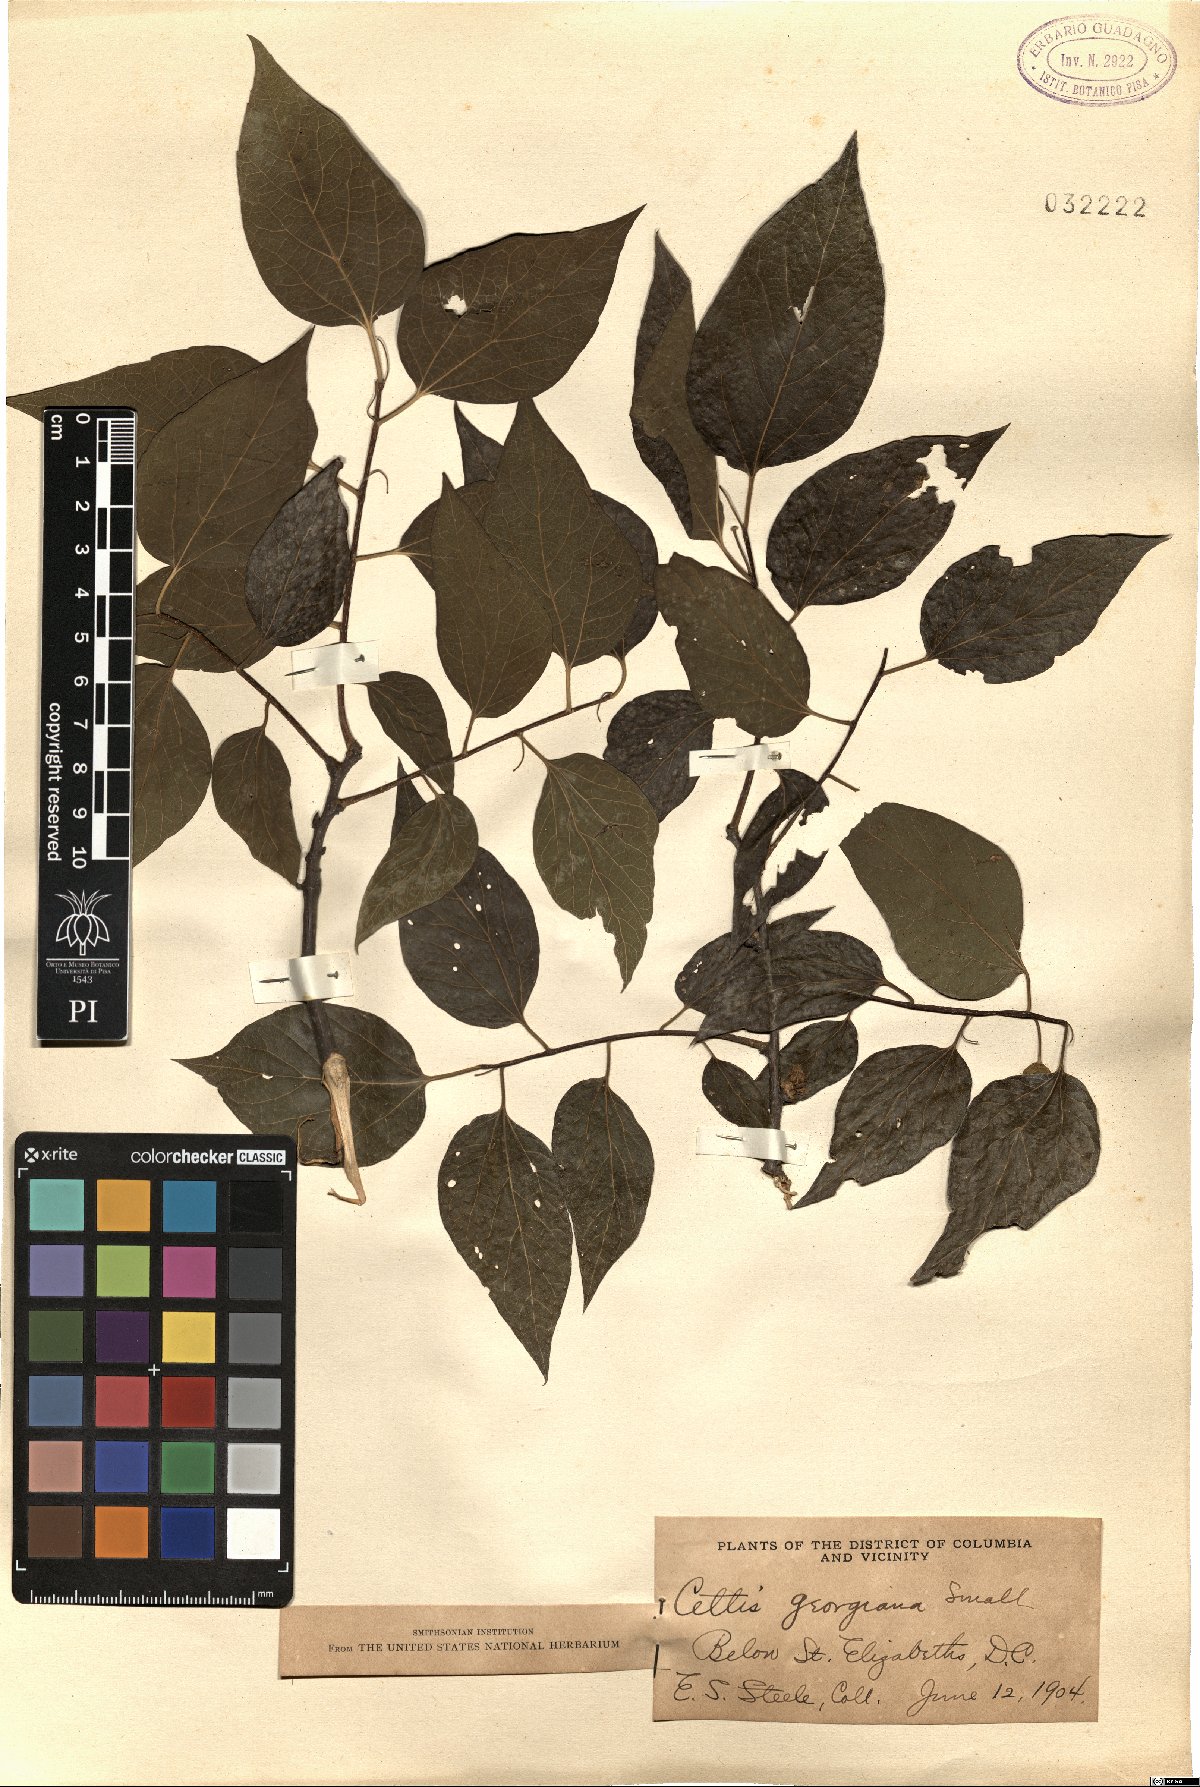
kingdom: Plantae
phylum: Tracheophyta
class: Magnoliopsida
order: Rosales
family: Cannabaceae
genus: Celtis
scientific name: Celtis tenuifolia
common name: Georgia hackberry
